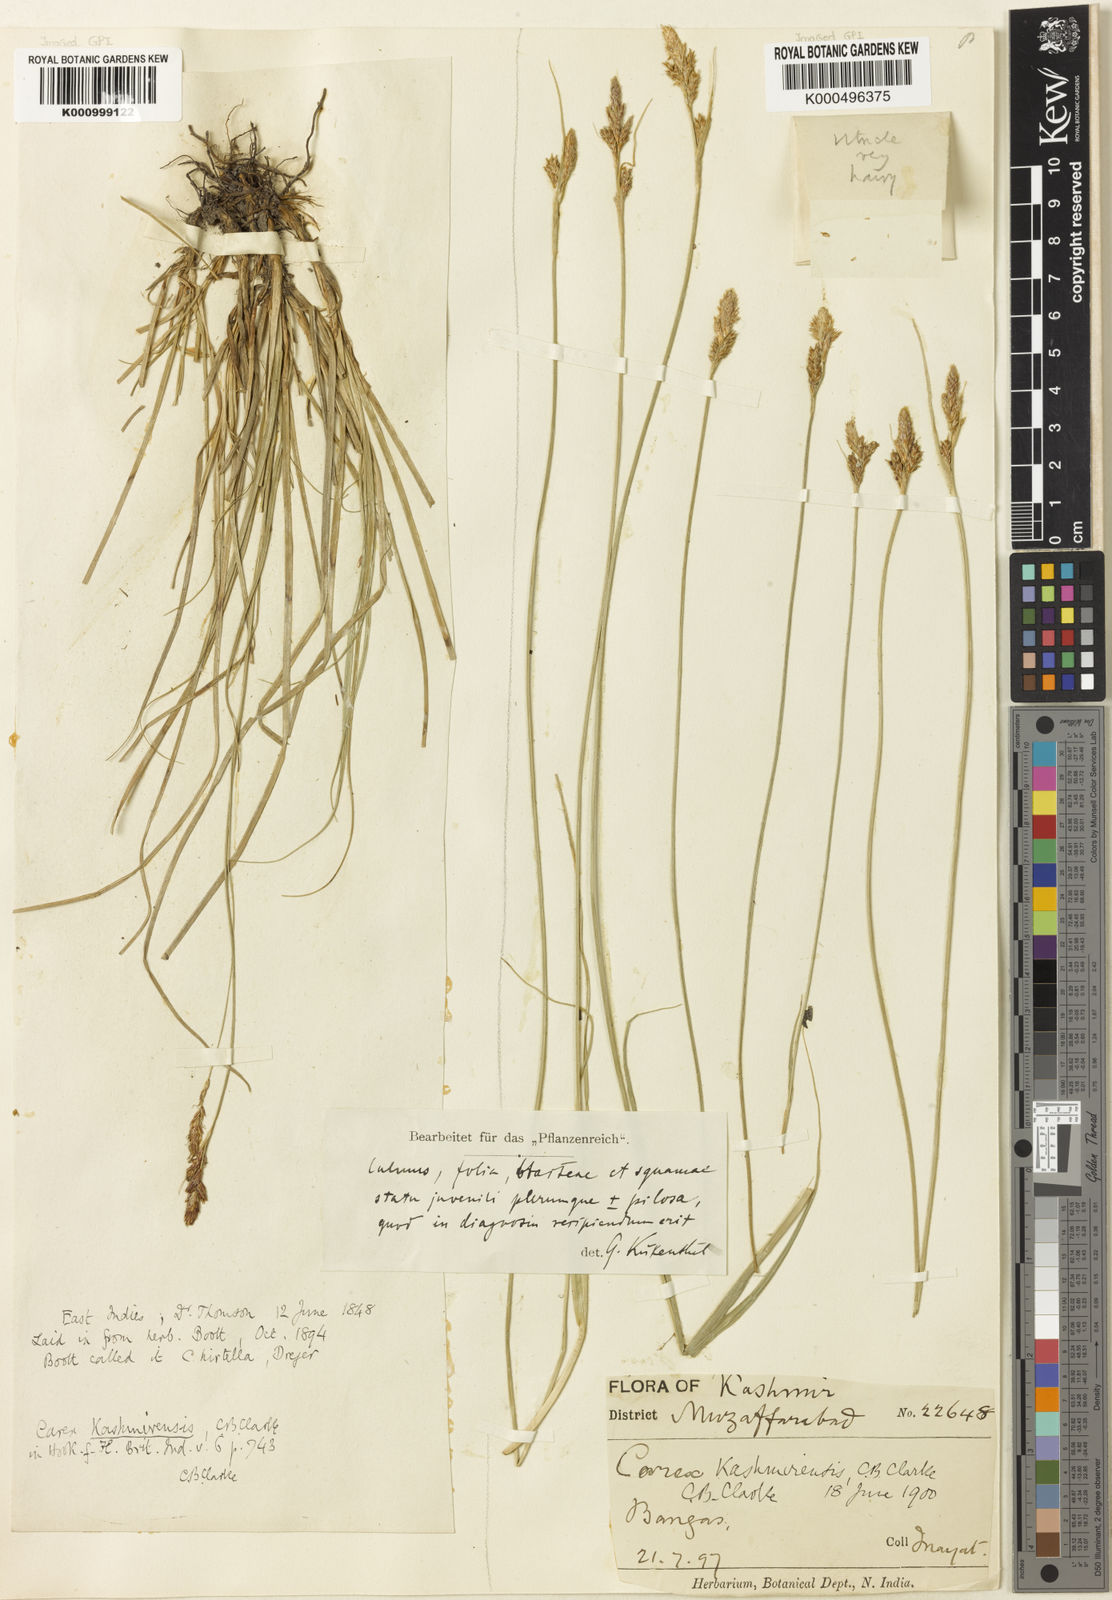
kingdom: Plantae
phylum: Tracheophyta
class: Liliopsida
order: Poales
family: Cyperaceae
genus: Carex
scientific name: Carex kashmirensis
